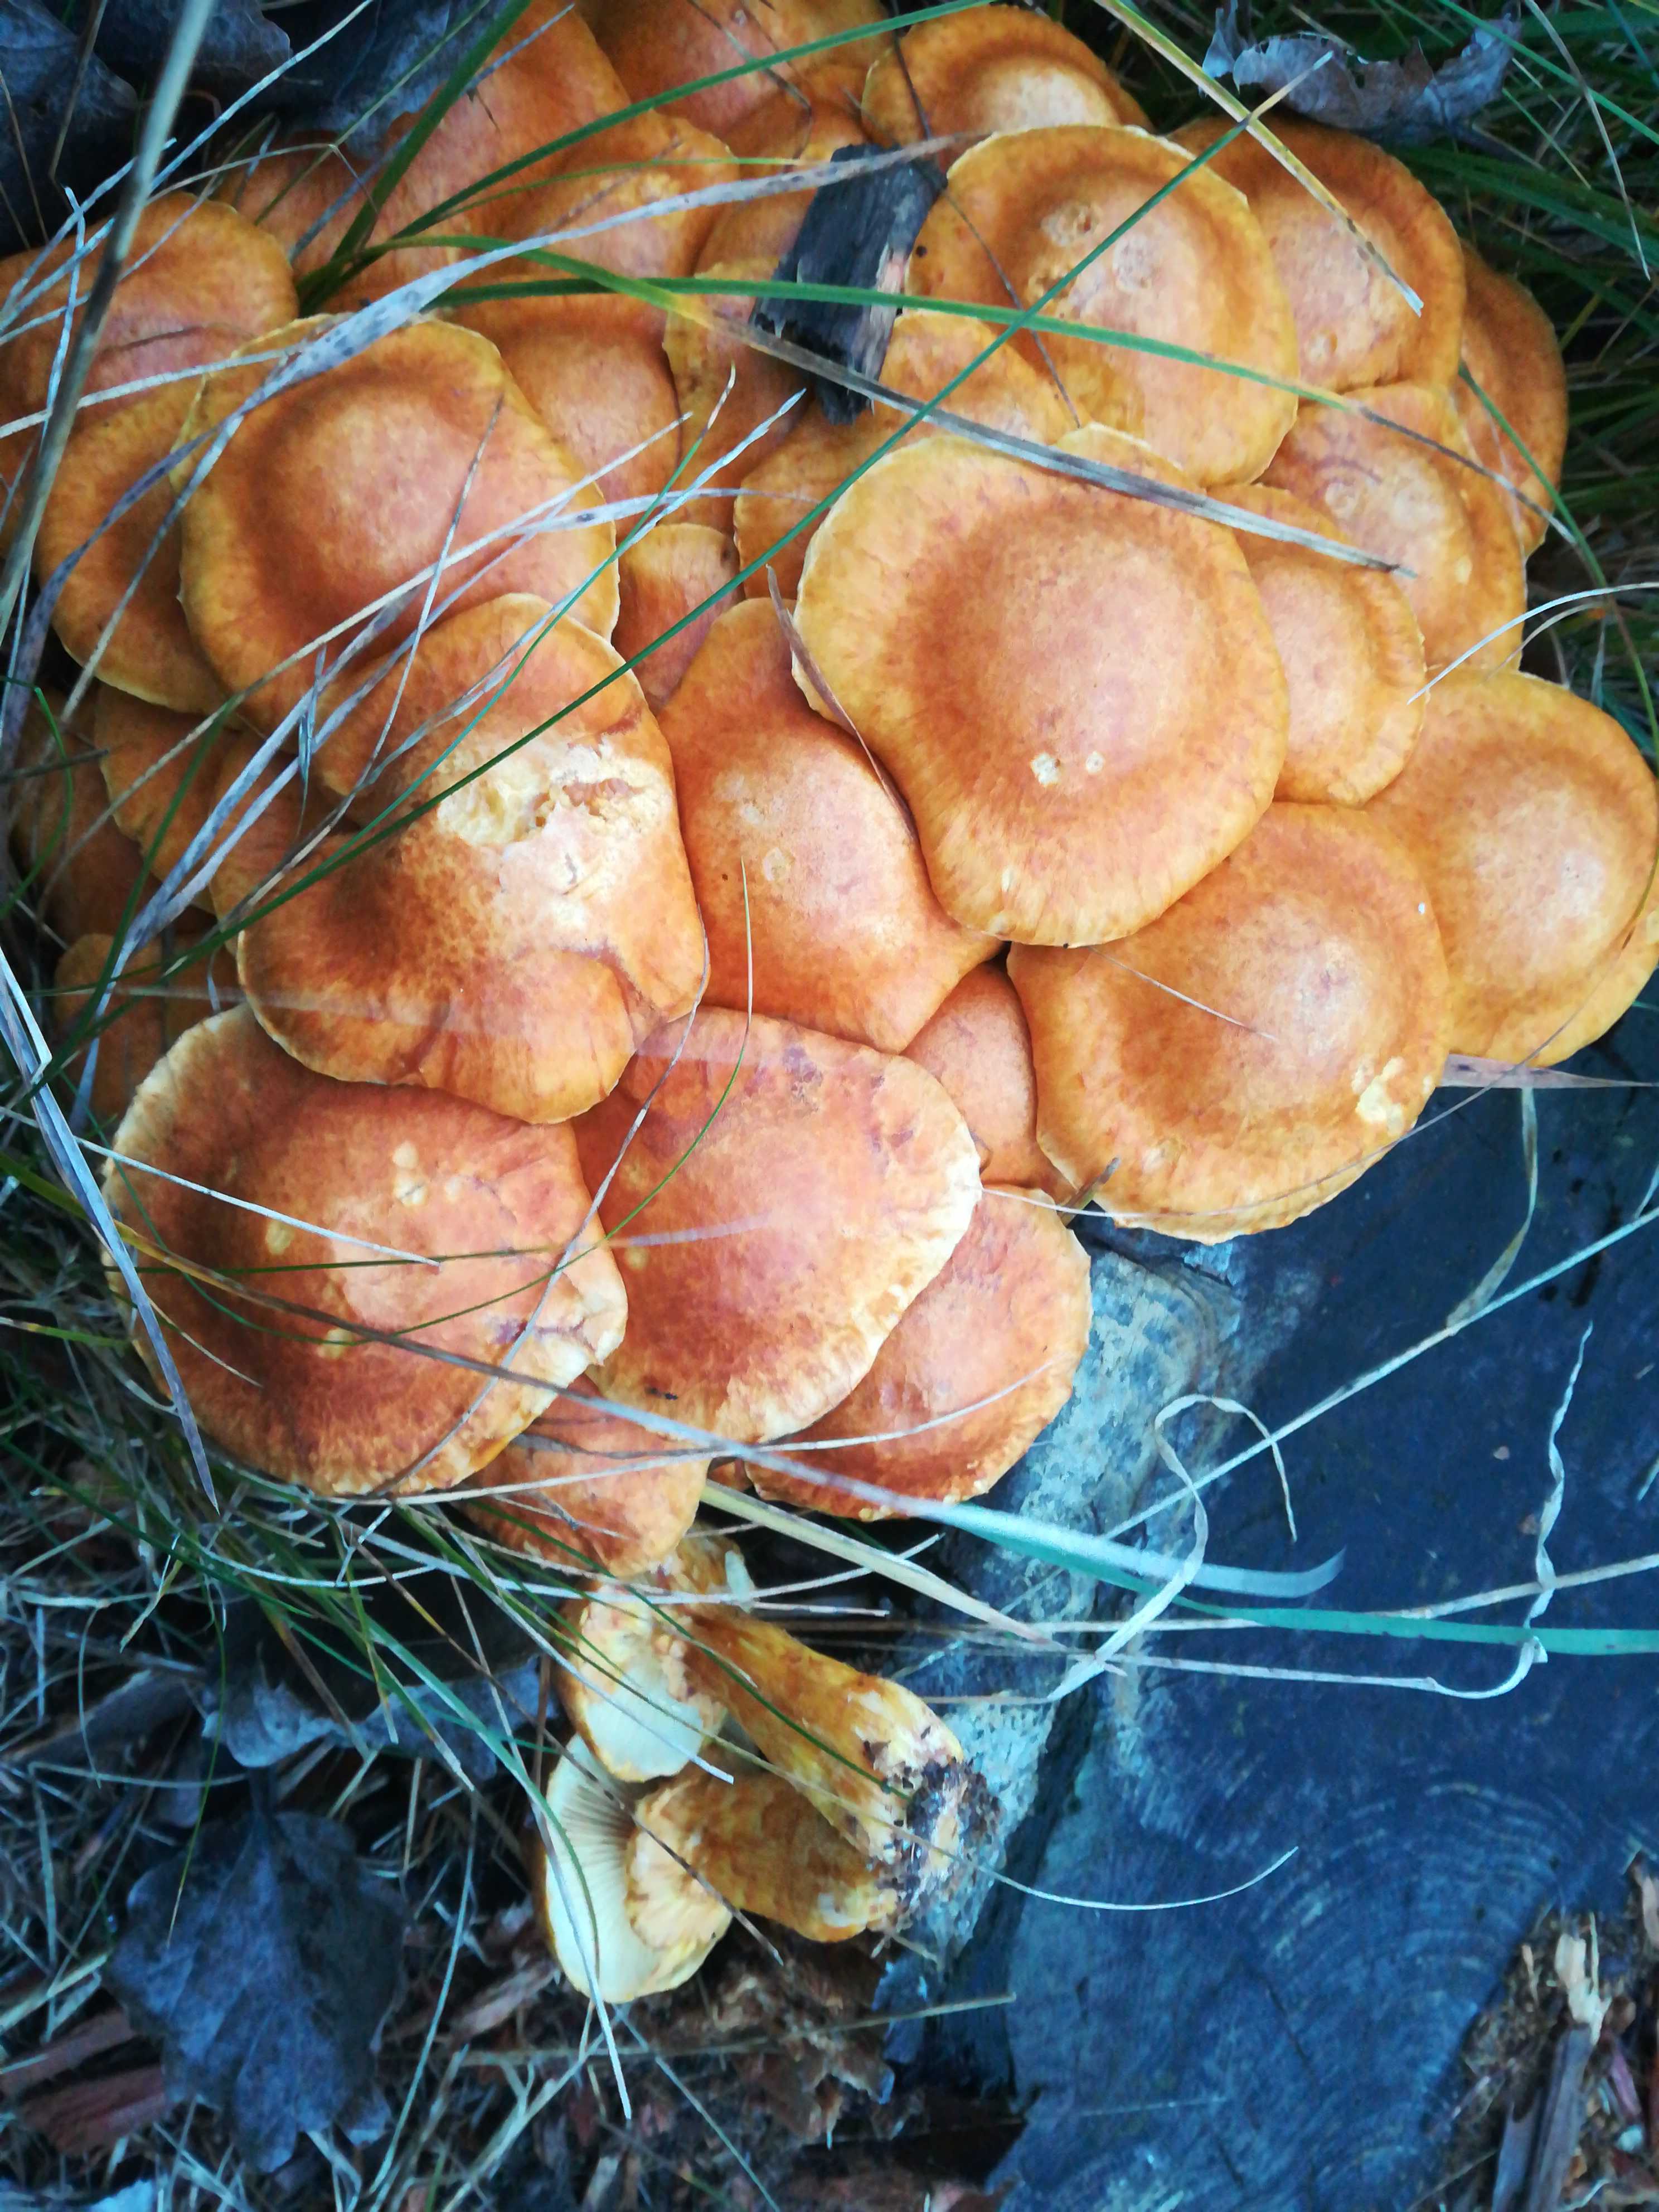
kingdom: Fungi
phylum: Basidiomycota
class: Agaricomycetes
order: Agaricales
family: Hymenogastraceae
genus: Gymnopilus
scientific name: Gymnopilus spectabilis
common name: fibret flammehat
